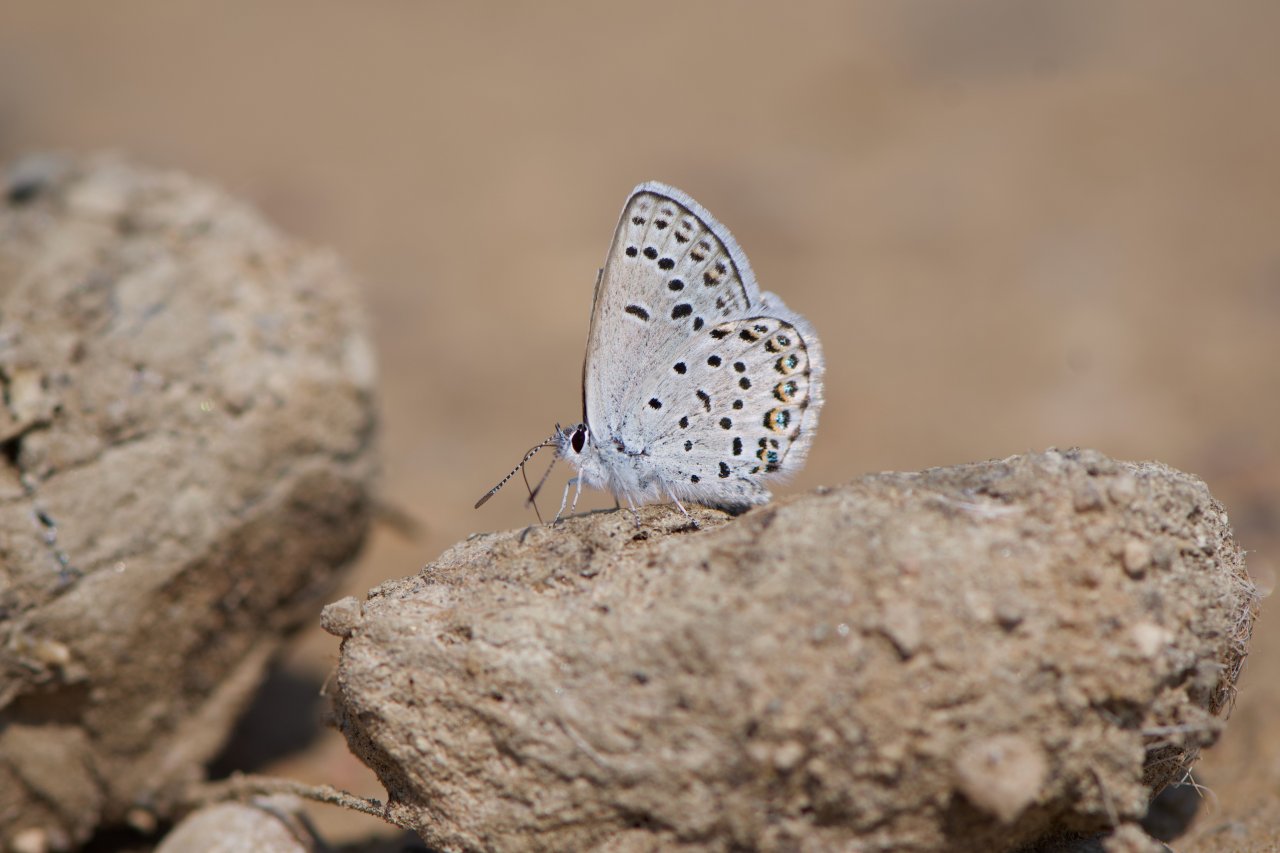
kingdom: Animalia
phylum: Arthropoda
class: Insecta
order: Lepidoptera
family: Lycaenidae
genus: Lycaeides
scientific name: Lycaeides idas
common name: Northern Blue
